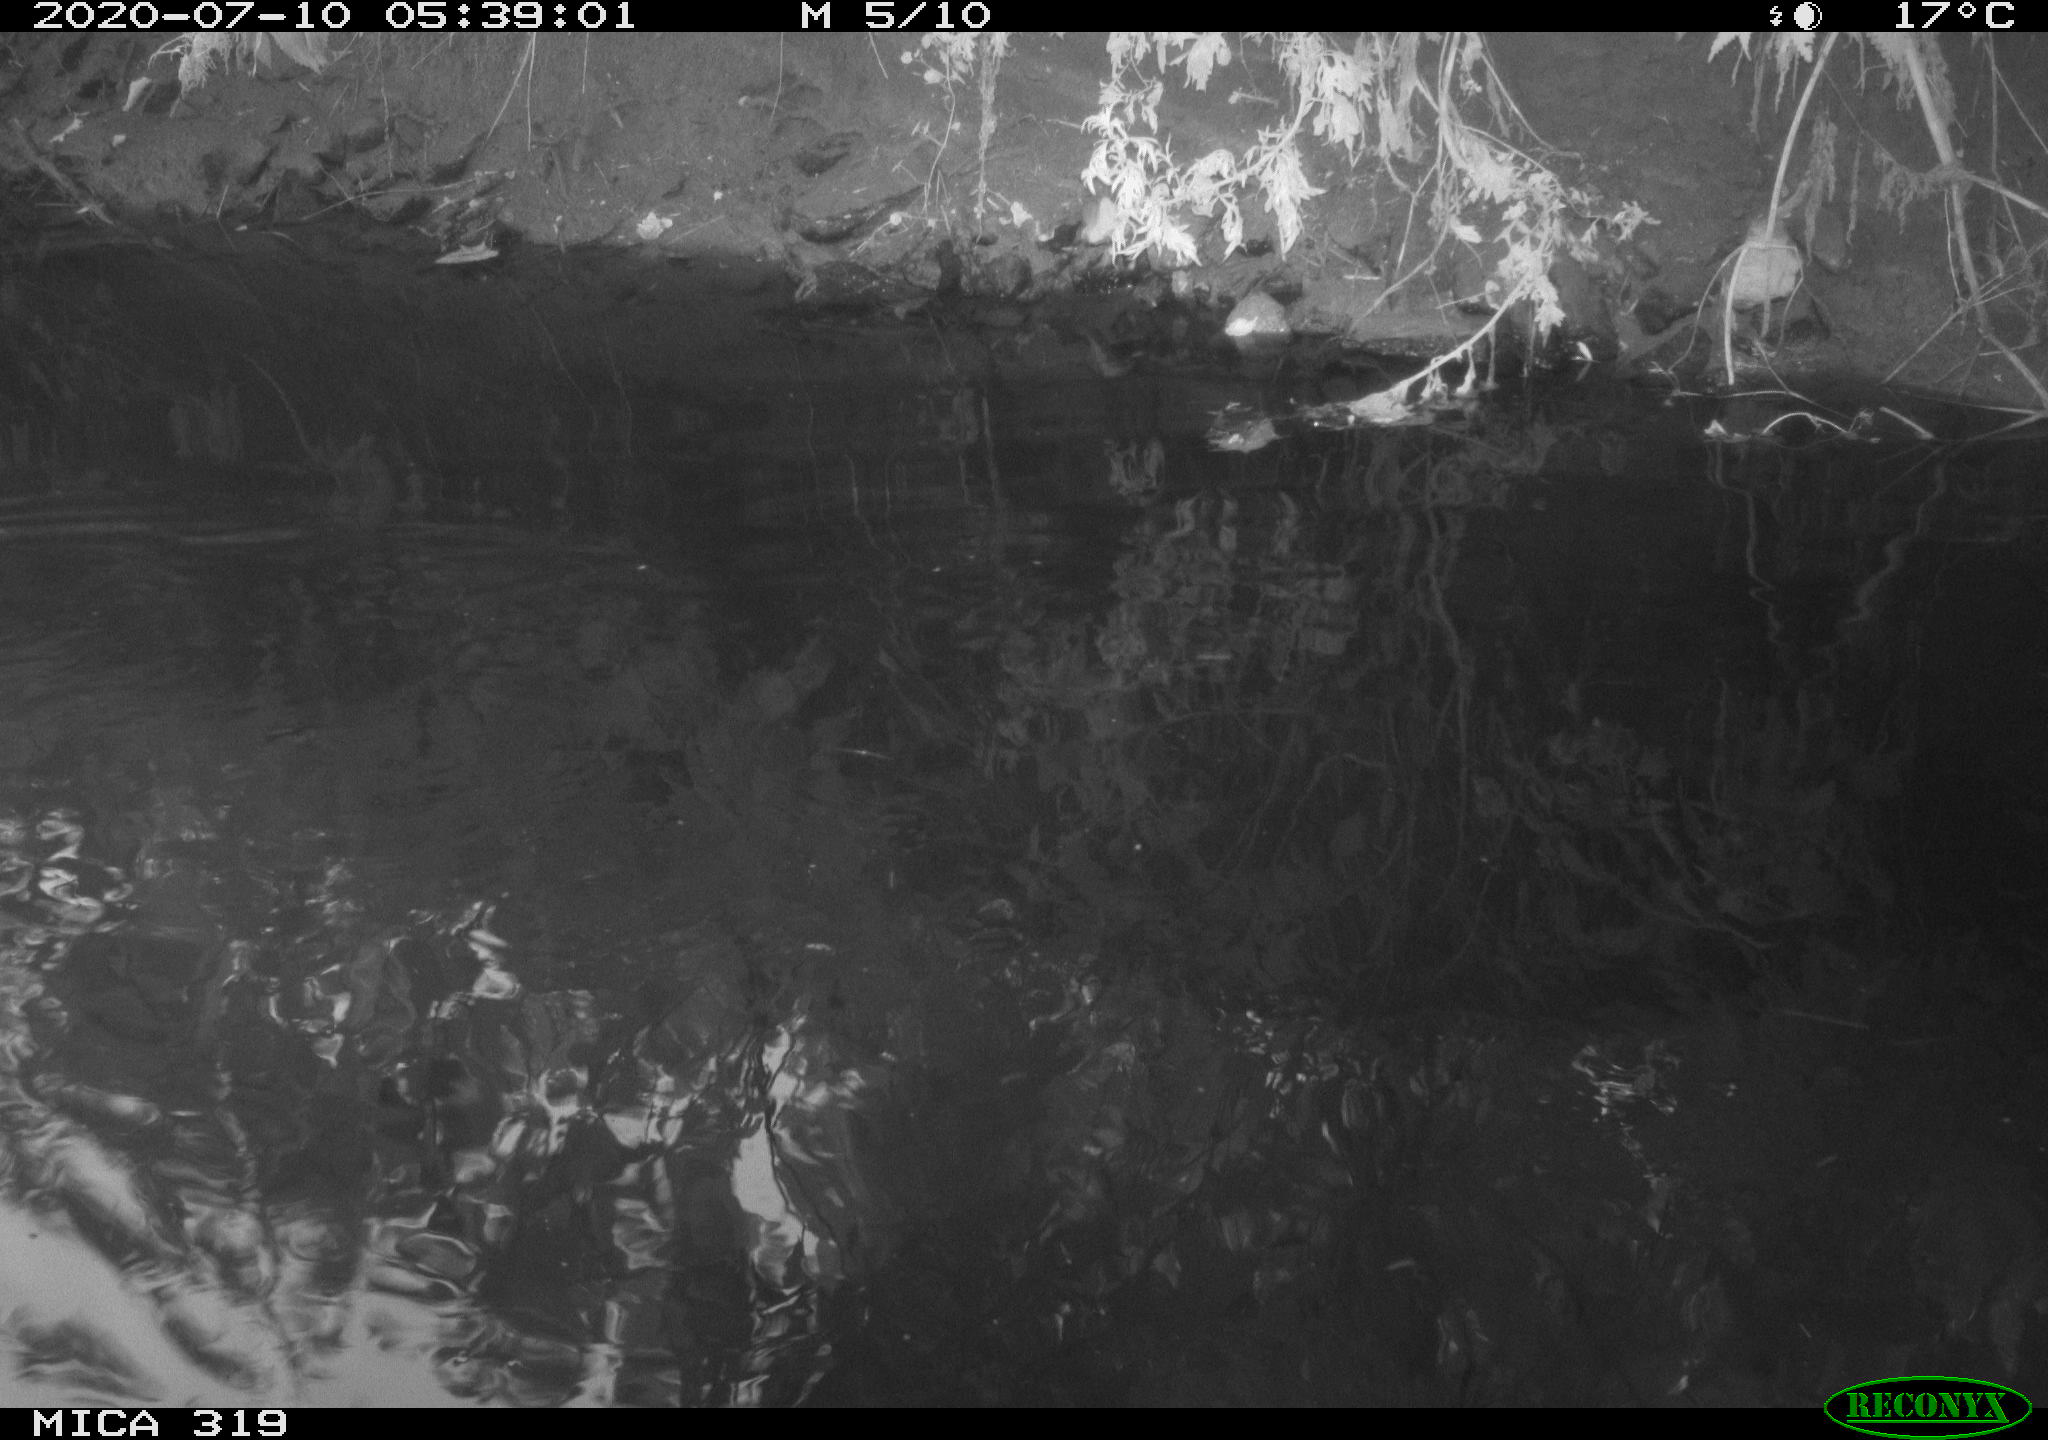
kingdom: Animalia
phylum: Chordata
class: Aves
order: Anseriformes
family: Anatidae
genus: Anas
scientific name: Anas platyrhynchos
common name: Mallard
